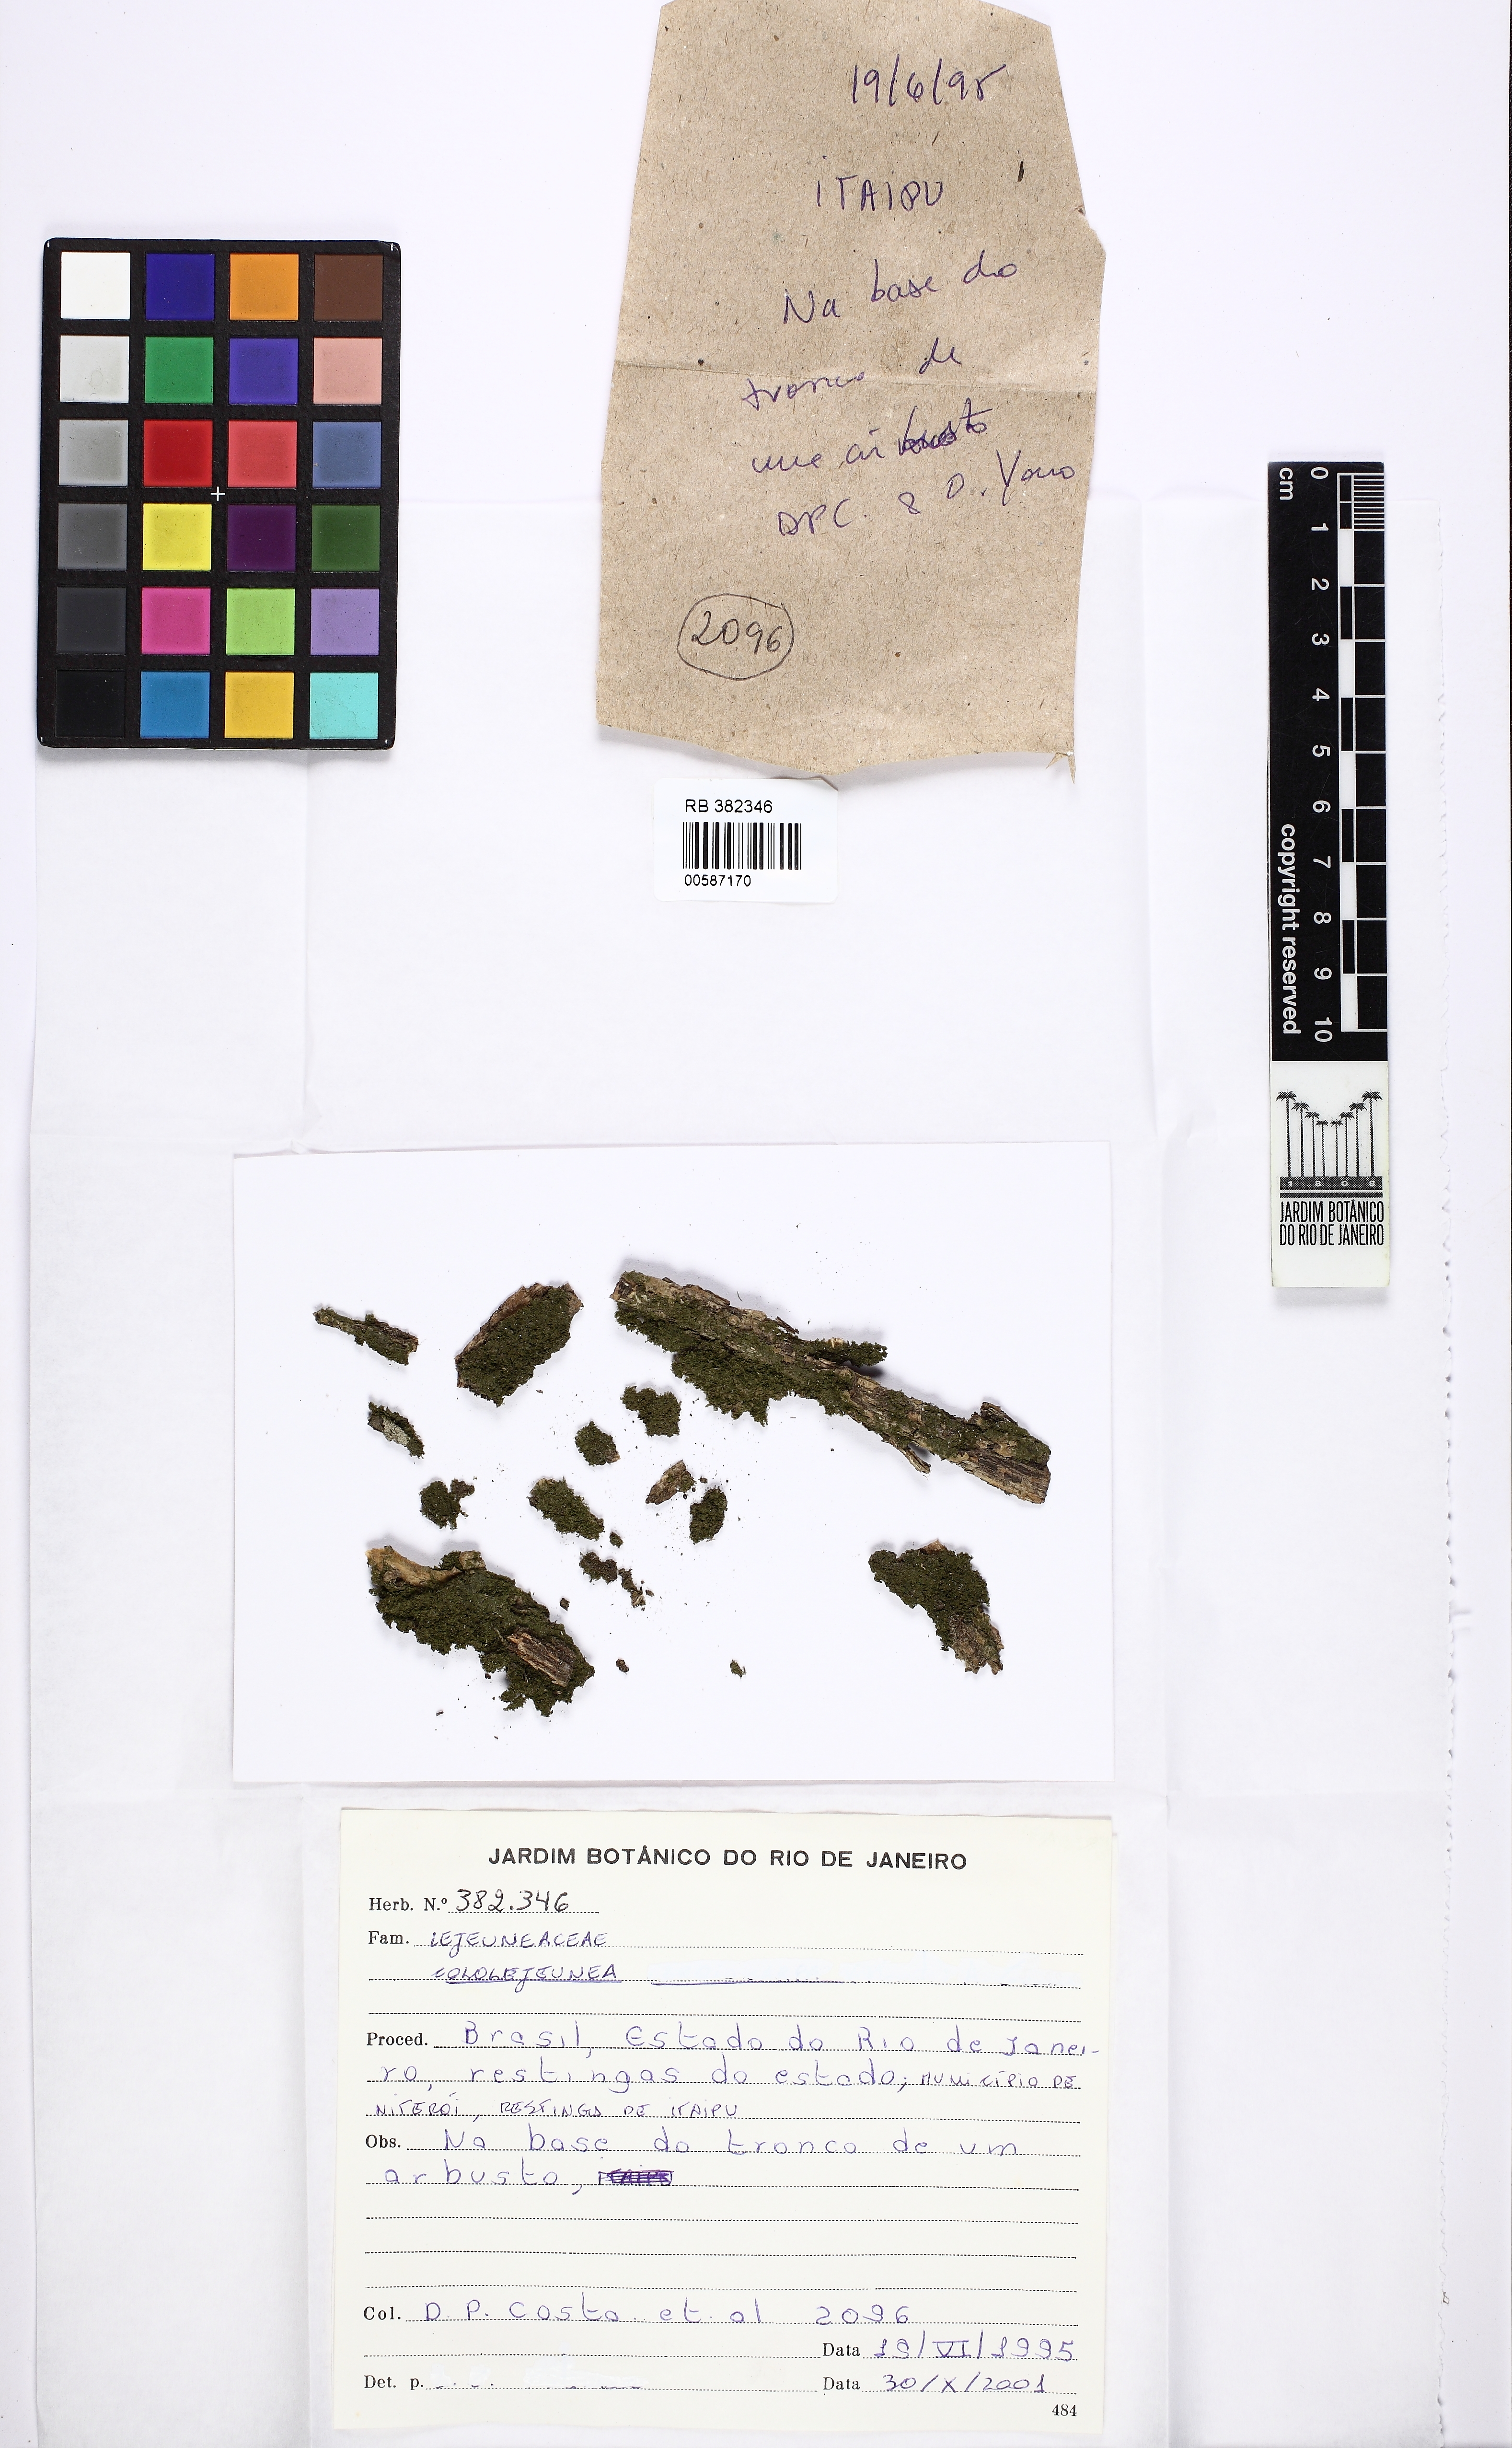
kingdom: Plantae
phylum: Marchantiophyta
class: Jungermanniopsida
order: Porellales
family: Lejeuneaceae
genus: Cololejeunea
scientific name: Cololejeunea
